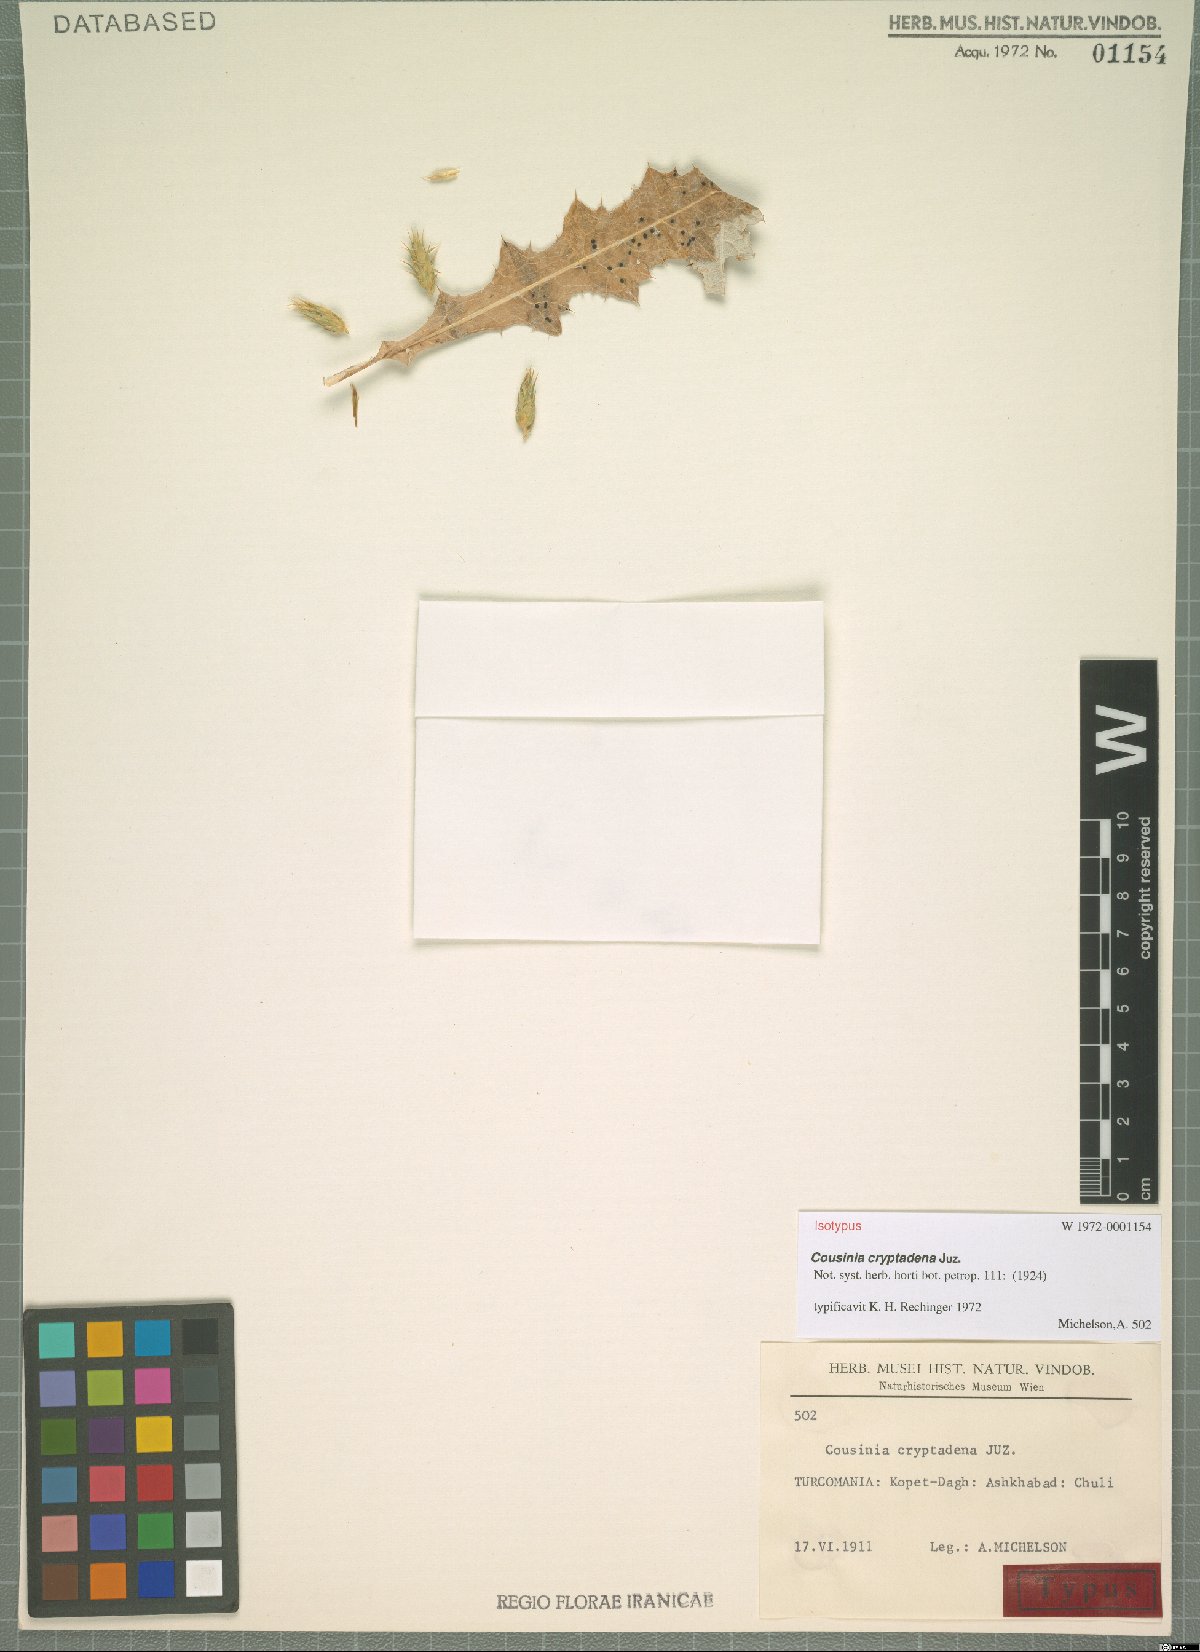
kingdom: Plantae
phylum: Tracheophyta
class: Magnoliopsida
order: Asterales
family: Asteraceae
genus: Cousinia
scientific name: Cousinia cryptadena
